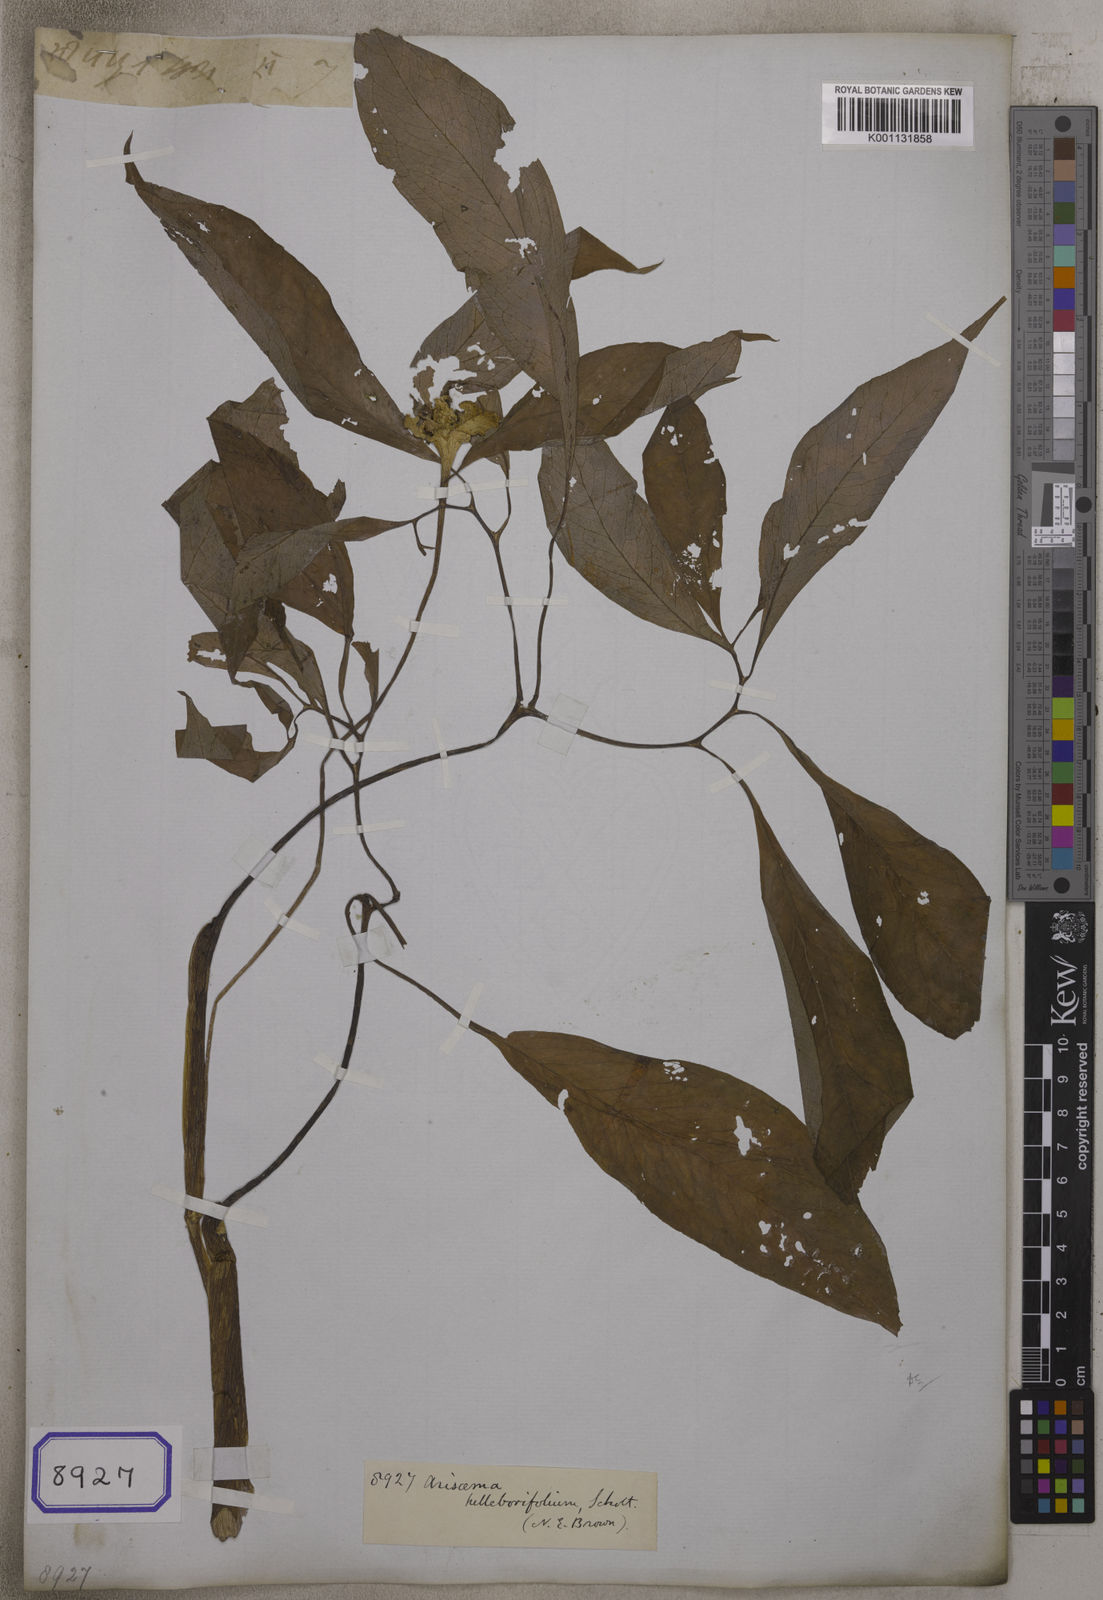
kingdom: Plantae
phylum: Tracheophyta
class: Liliopsida
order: Alismatales
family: Araceae
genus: Arisaema
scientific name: Arisaema
